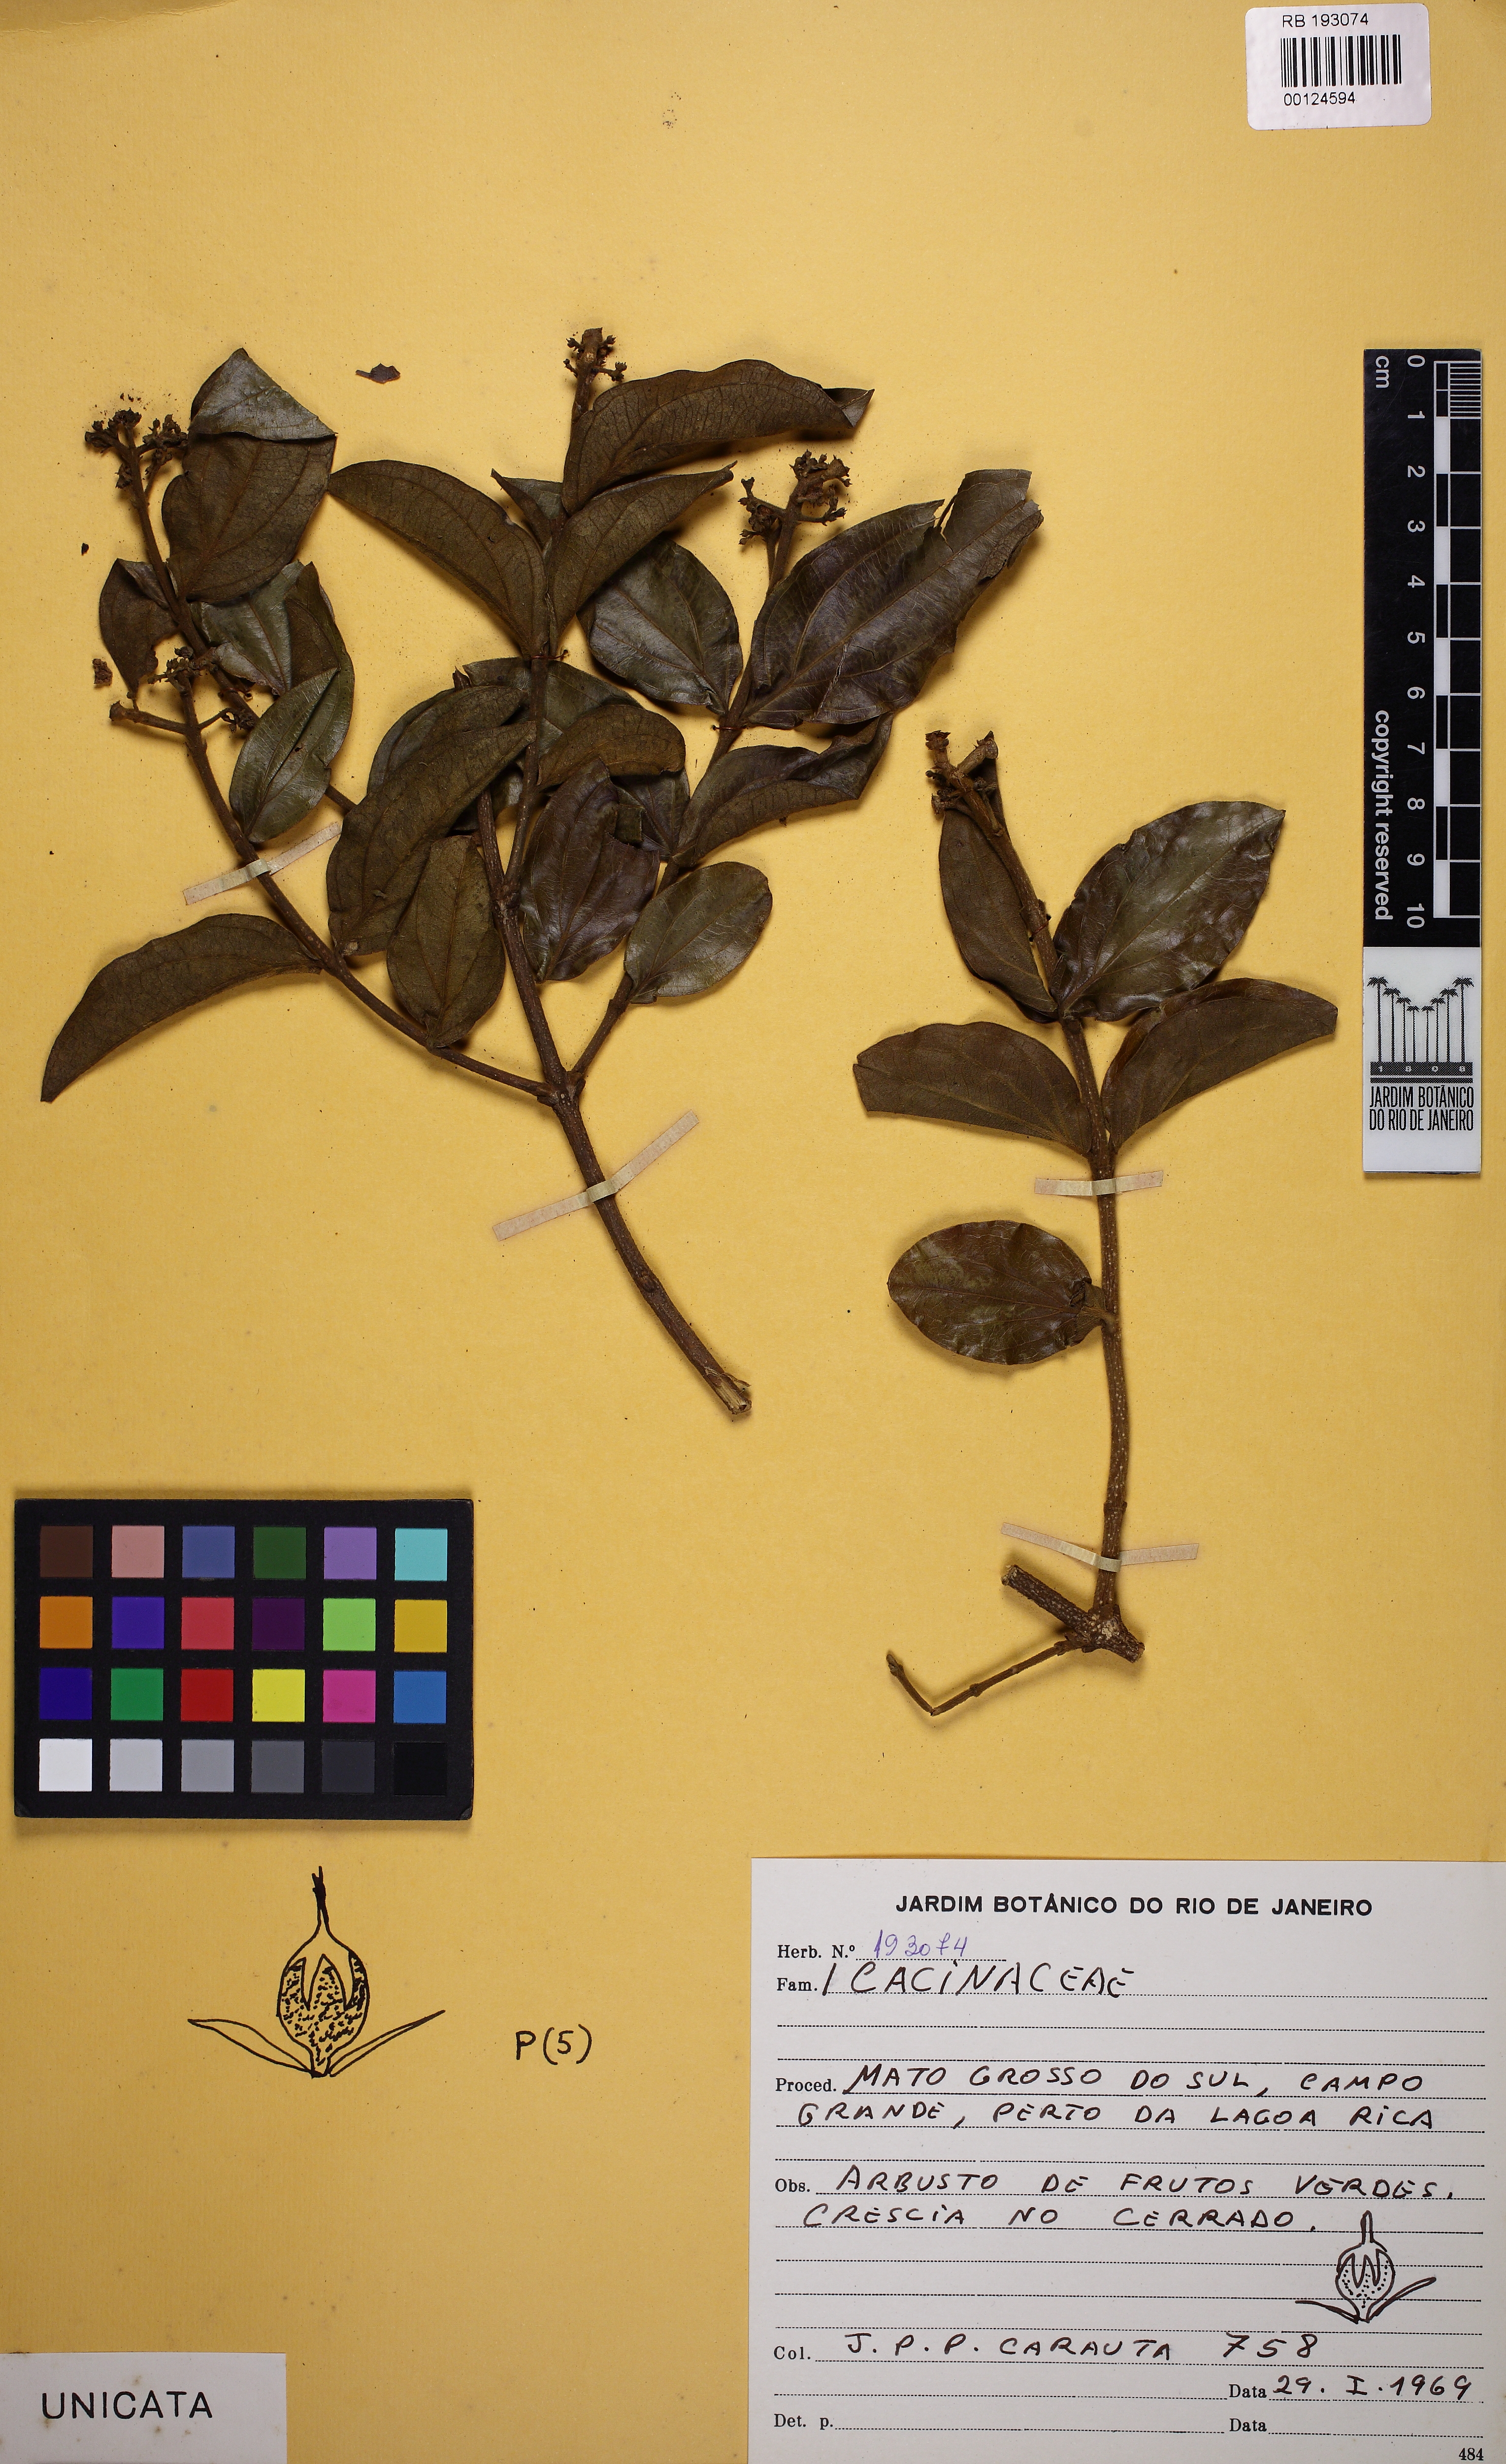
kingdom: Plantae
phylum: Tracheophyta
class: Magnoliopsida
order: Icacinales
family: Icacinaceae
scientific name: Icacinaceae
